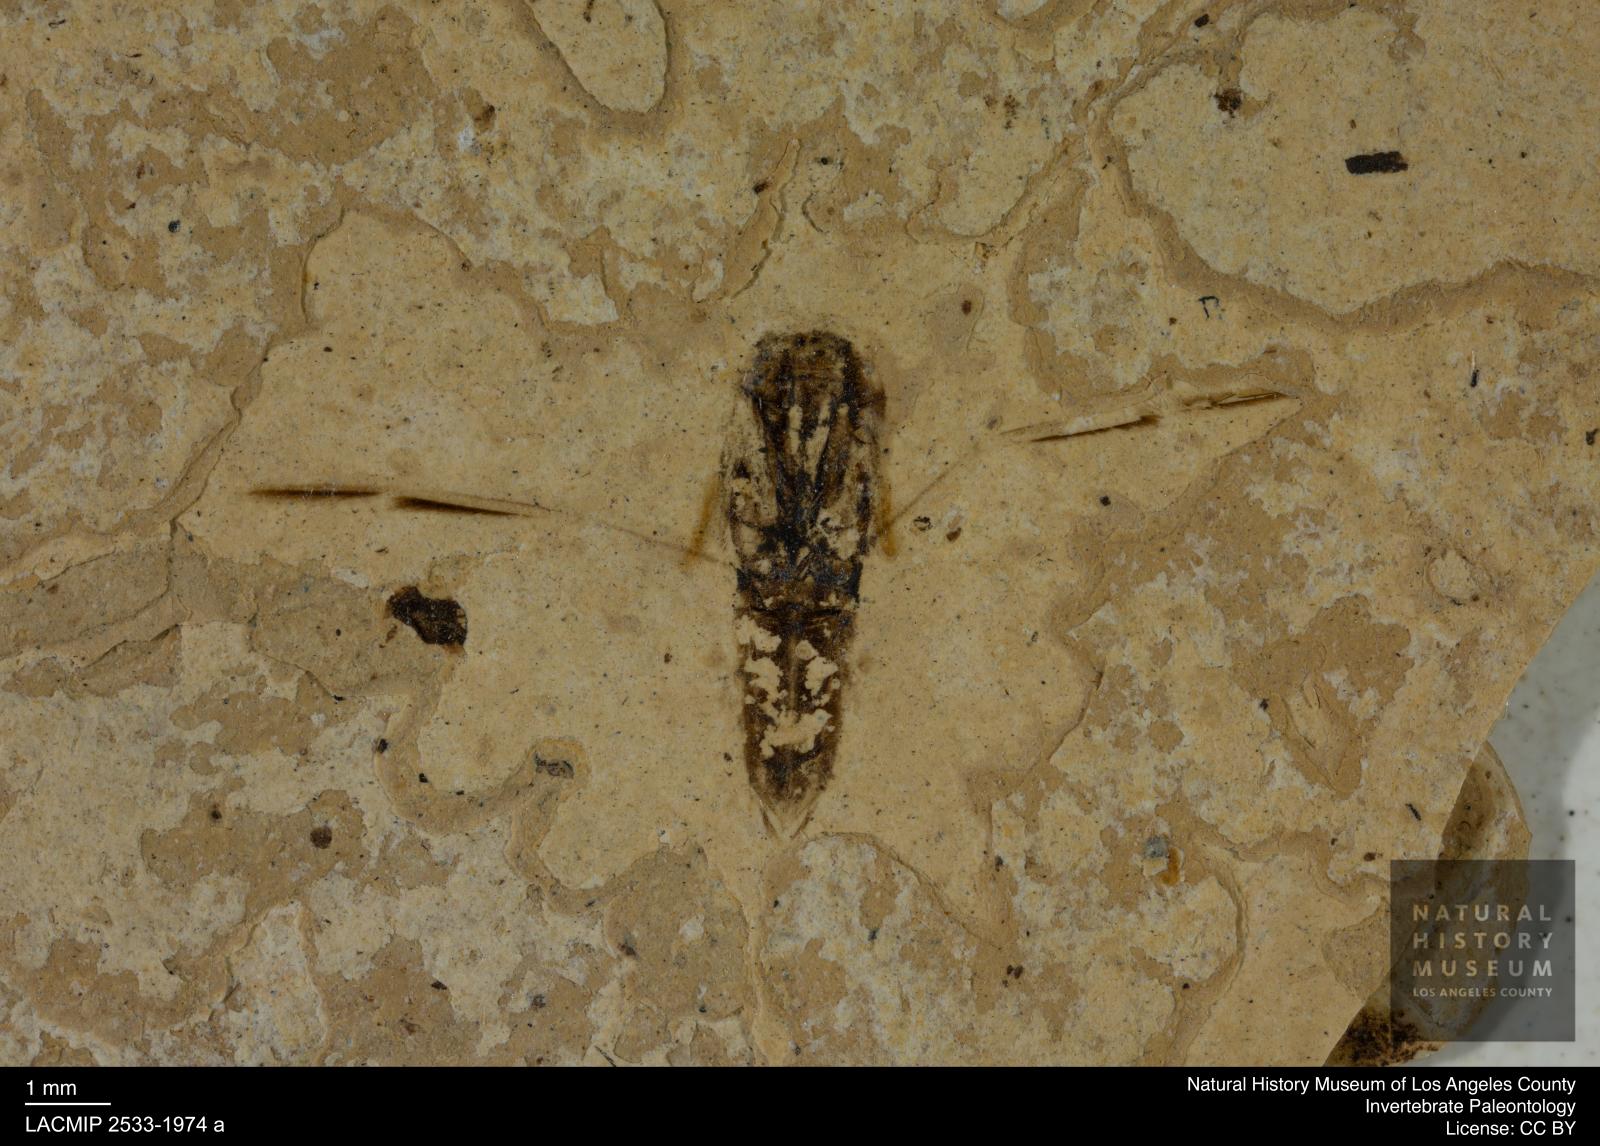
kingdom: Animalia
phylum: Arthropoda
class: Insecta
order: Hemiptera
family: Notonectidae
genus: Anisops
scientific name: Anisops Notonecta deichmuelleri
